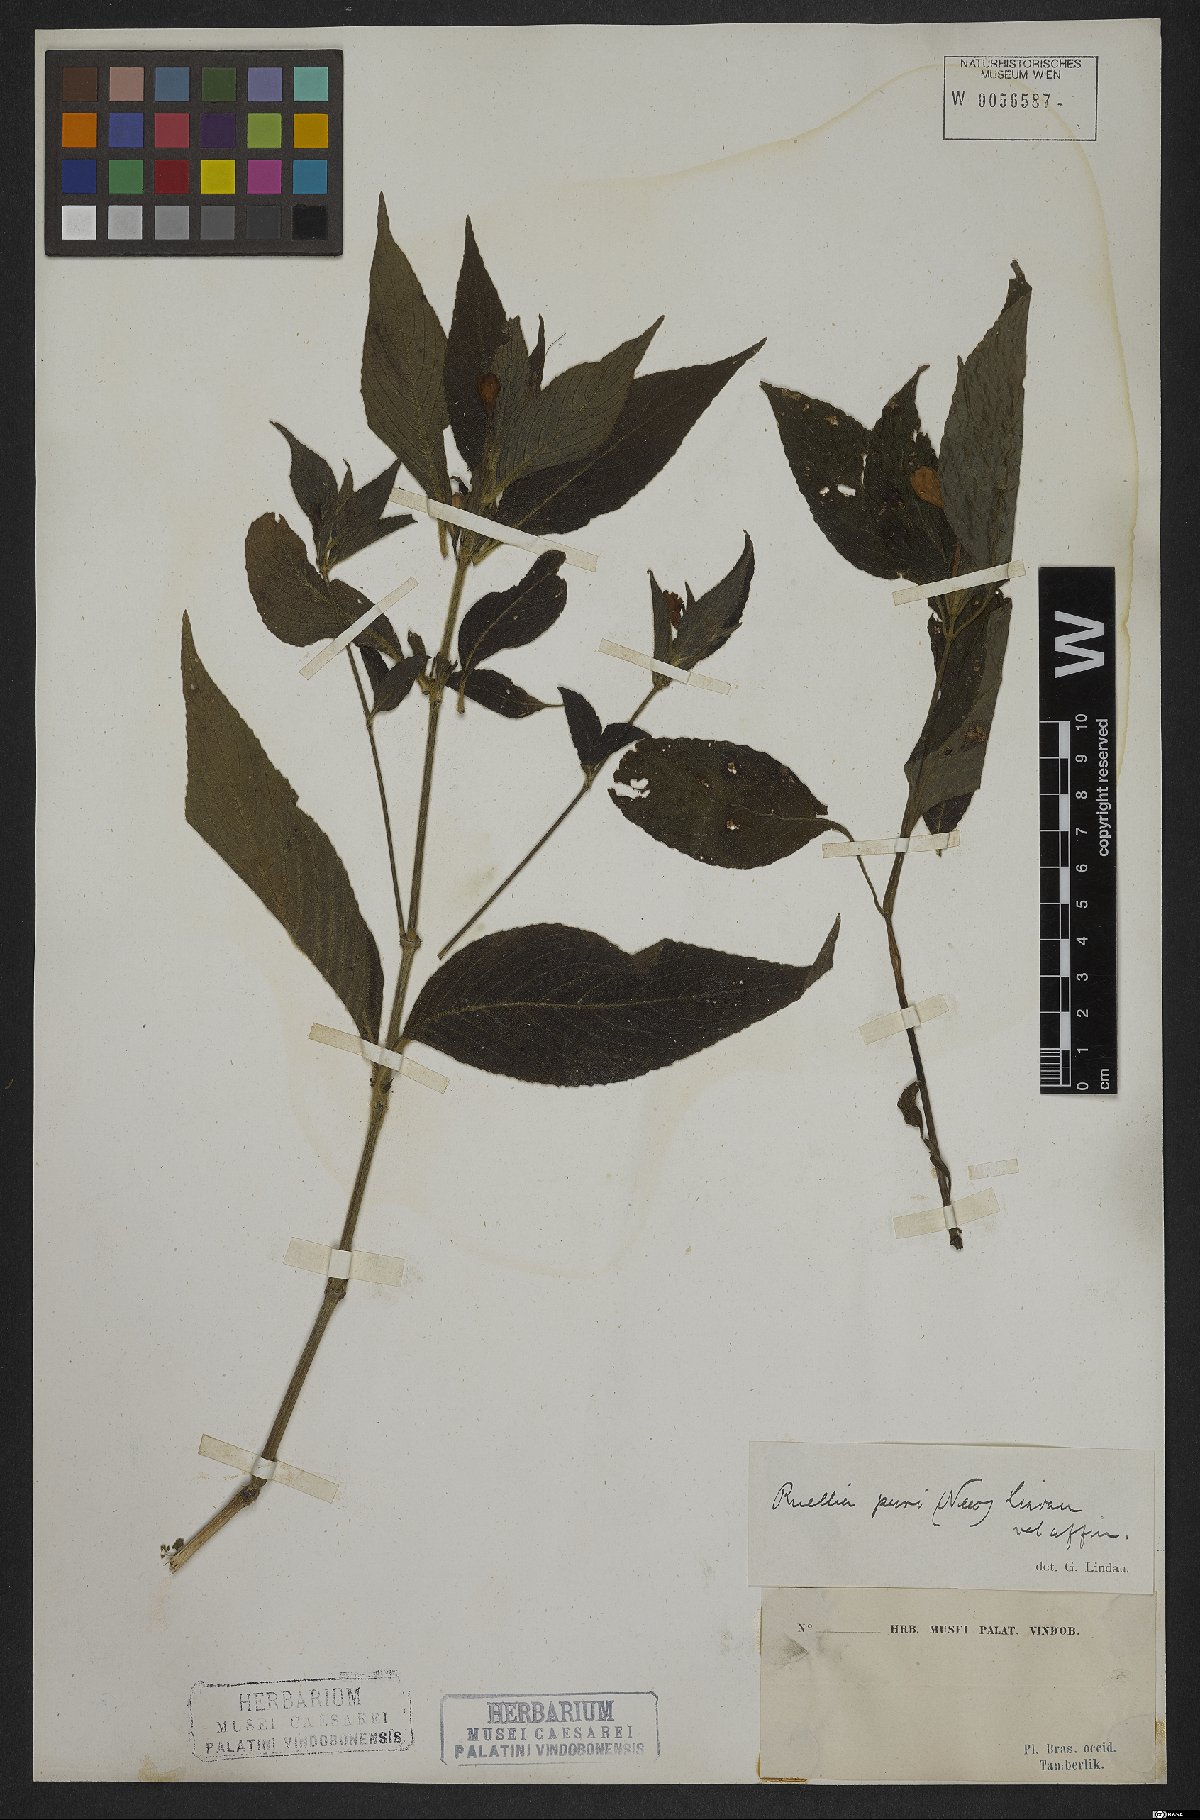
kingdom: Plantae
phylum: Tracheophyta
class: Magnoliopsida
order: Lamiales
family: Acanthaceae
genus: Ruellia
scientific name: Ruellia purii
